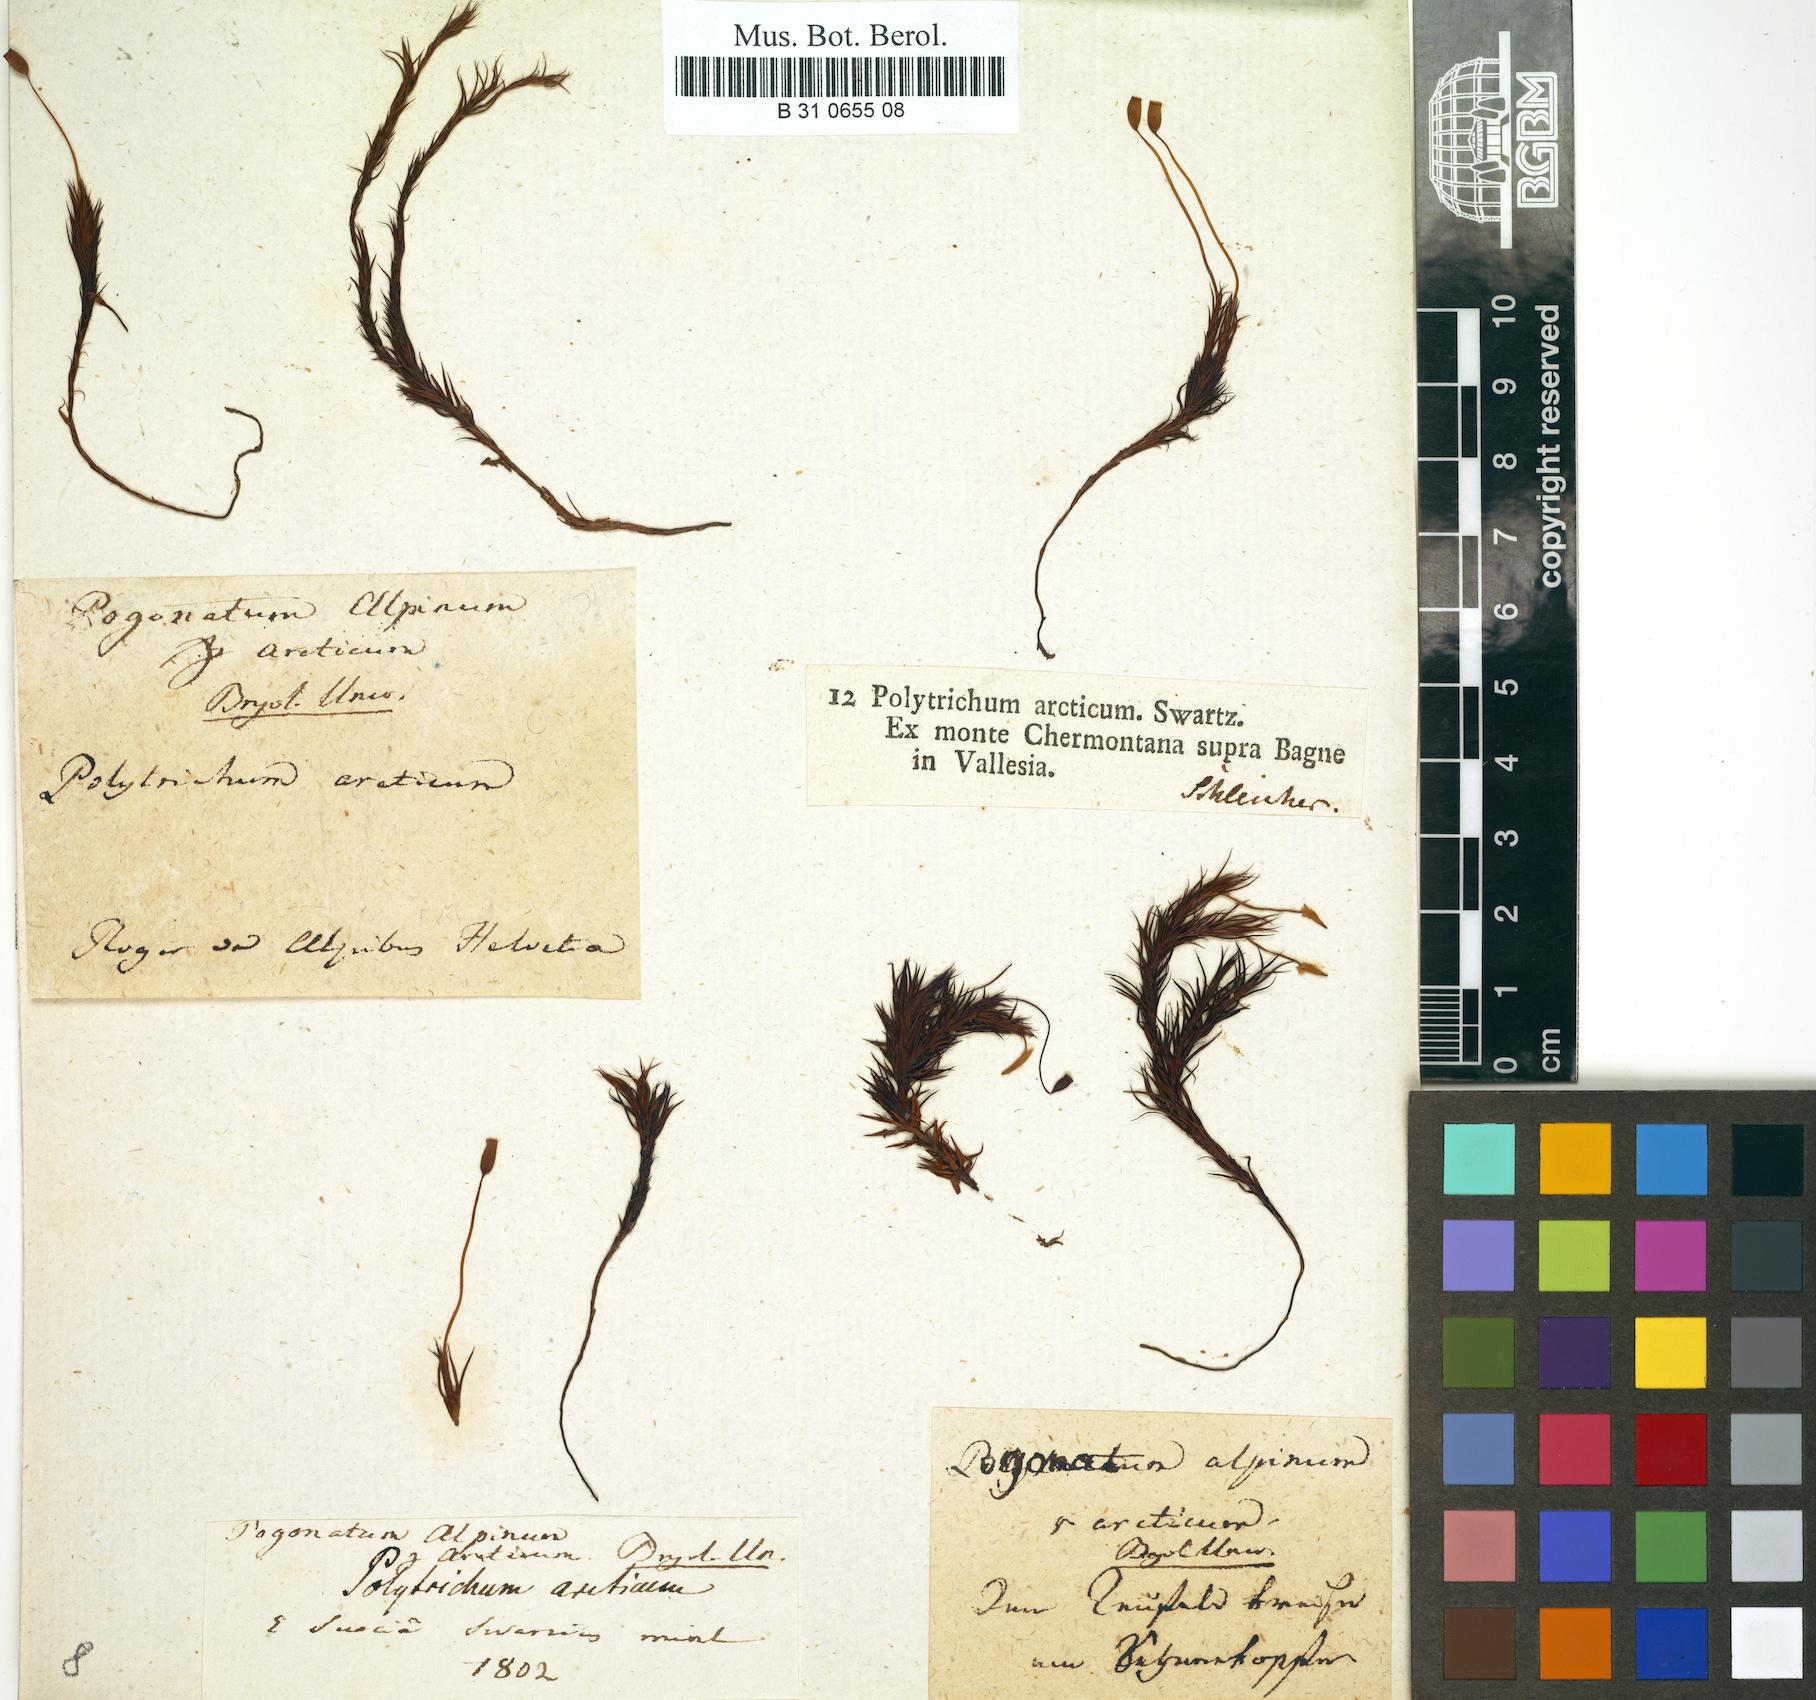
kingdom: Plantae
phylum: Bryophyta
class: Polytrichopsida
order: Polytrichales
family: Polytrichaceae
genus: Polytrichastrum
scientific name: Polytrichastrum alpinum
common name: Alpine haircap
